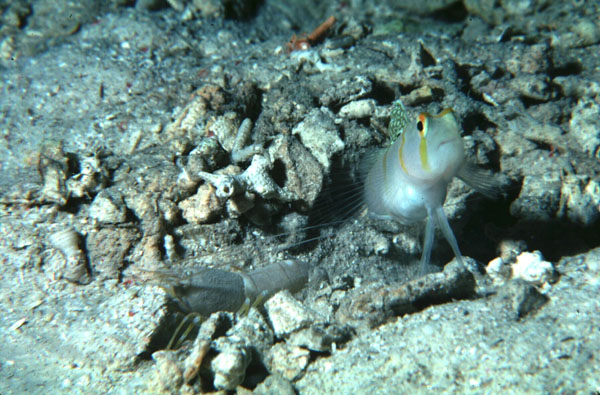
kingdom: Animalia
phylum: Chordata
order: Perciformes
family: Gobiidae
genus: Amblyeleotris
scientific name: Amblyeleotris randalli
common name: Gold-barred shrimp-goby
